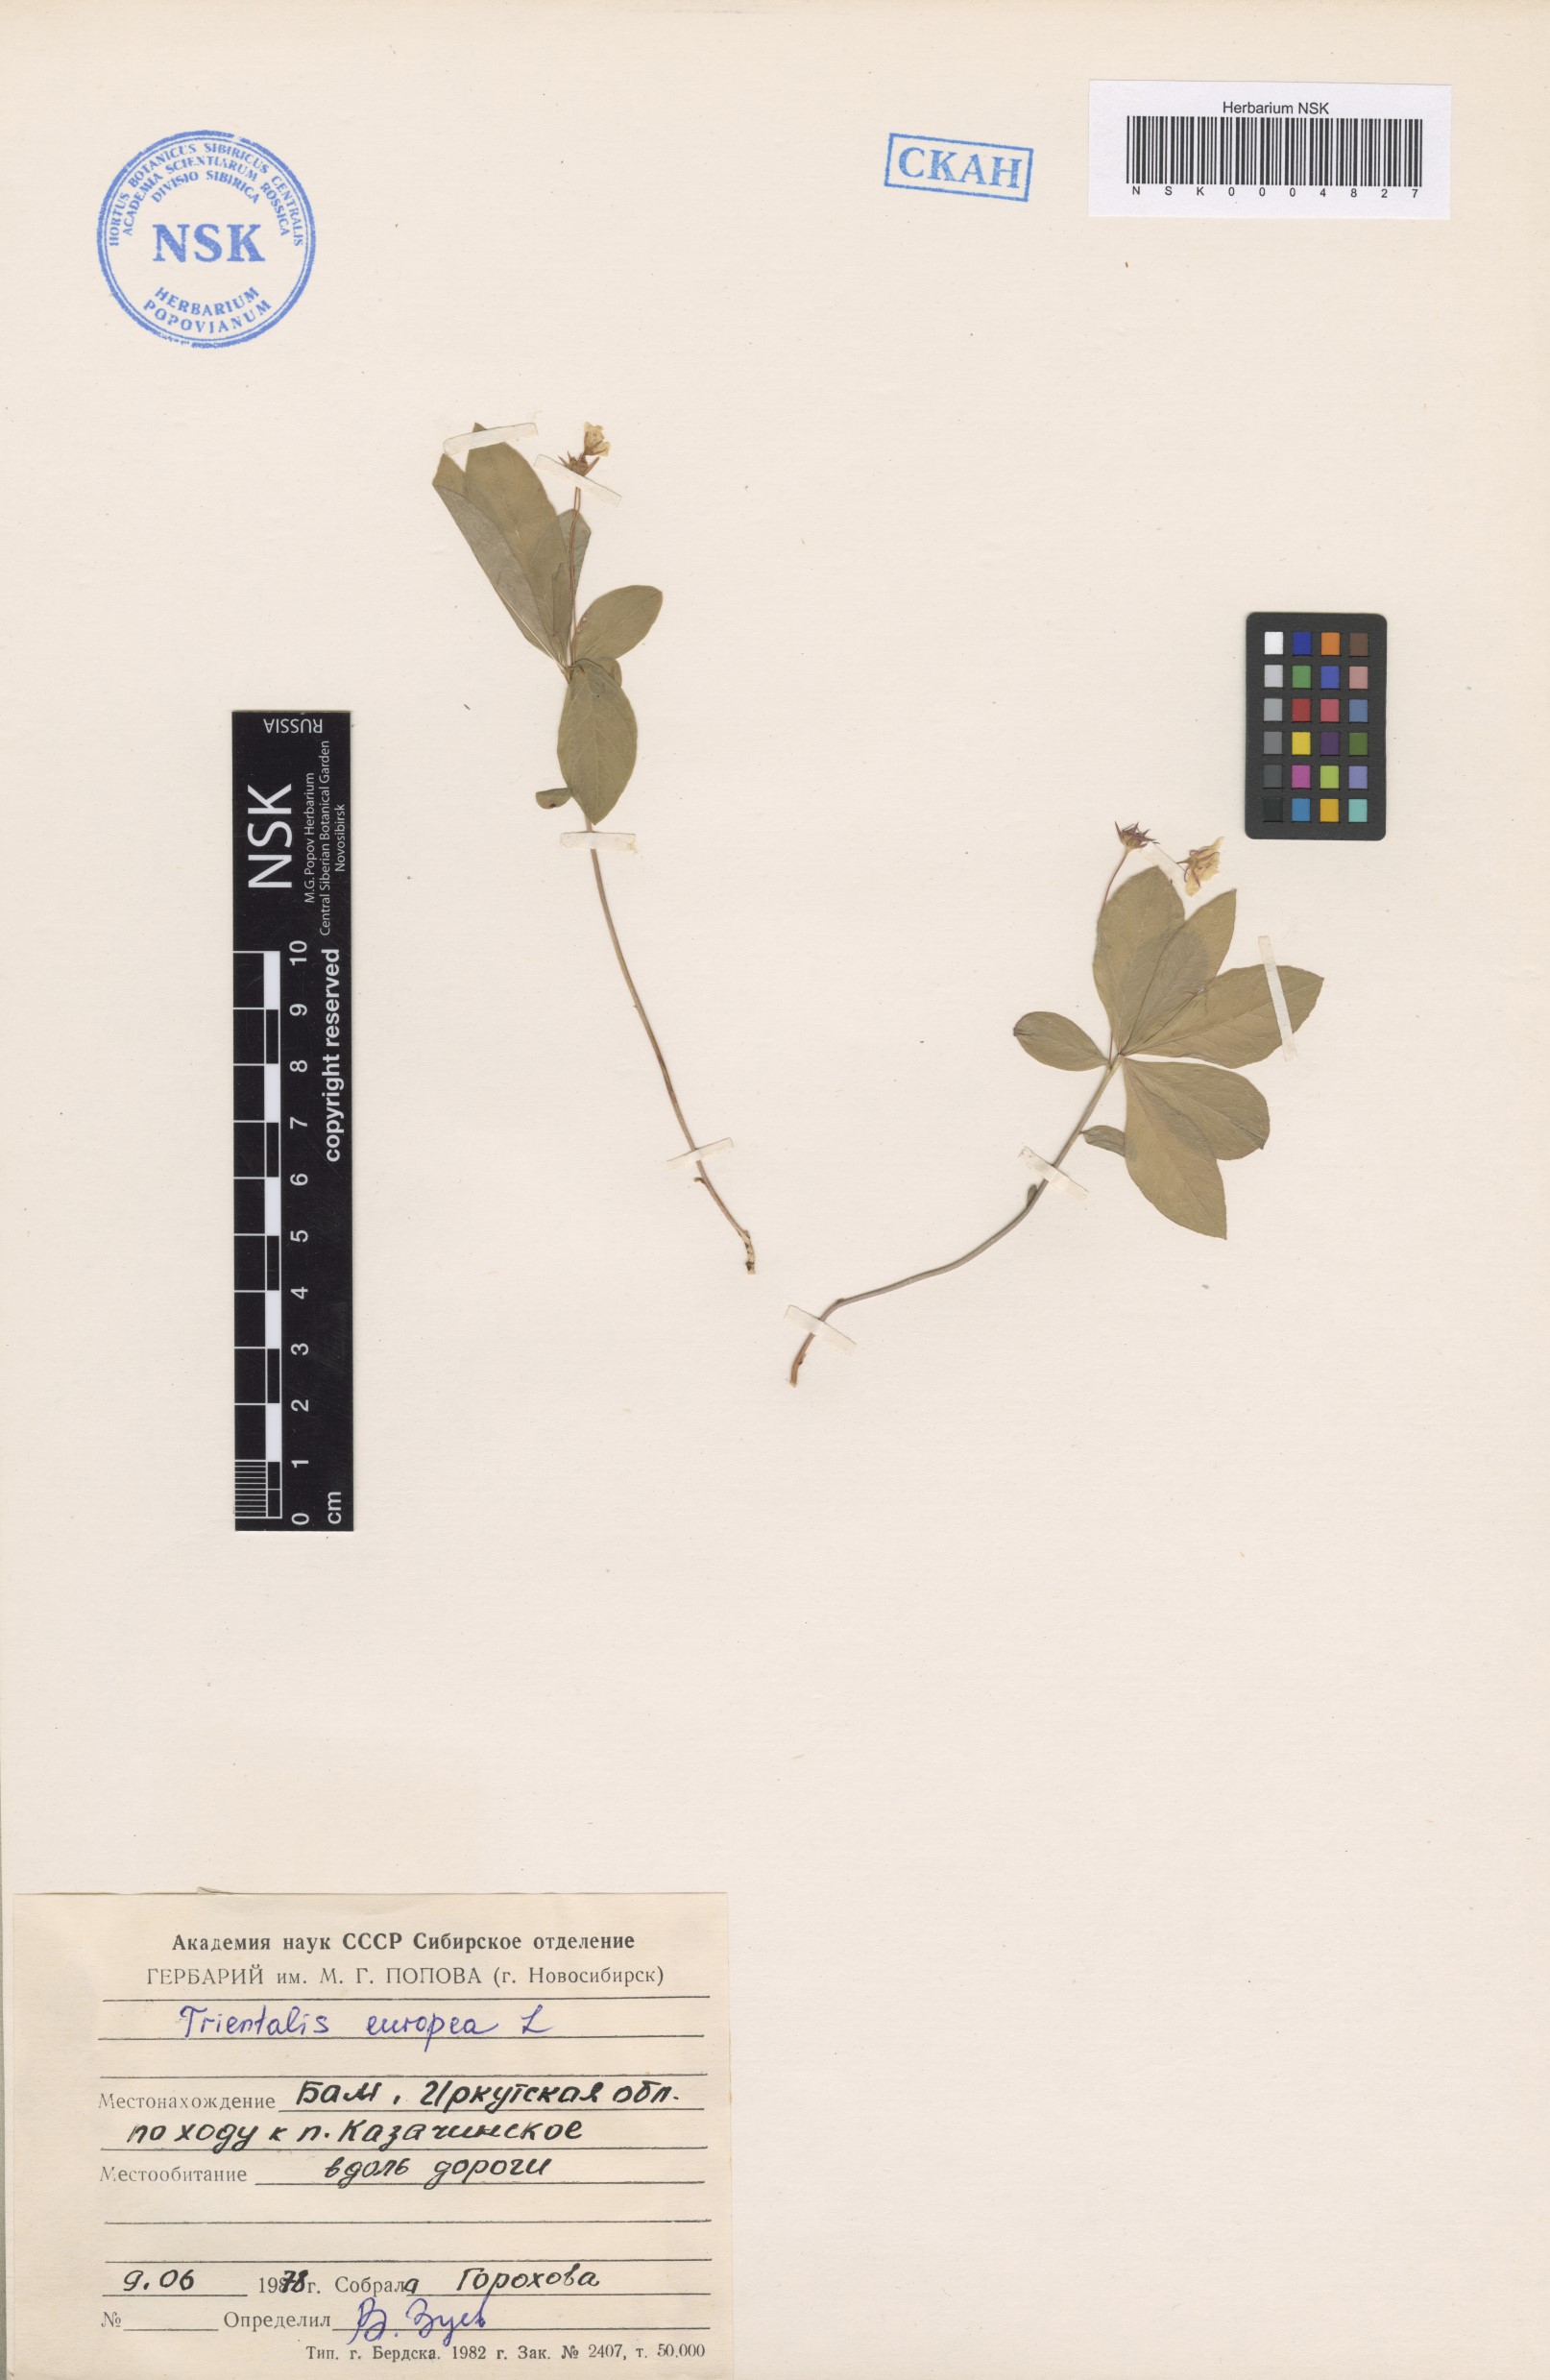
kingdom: Plantae
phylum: Tracheophyta
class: Magnoliopsida
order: Ericales
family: Primulaceae
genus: Lysimachia
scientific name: Lysimachia europaea
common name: Arctic starflower
